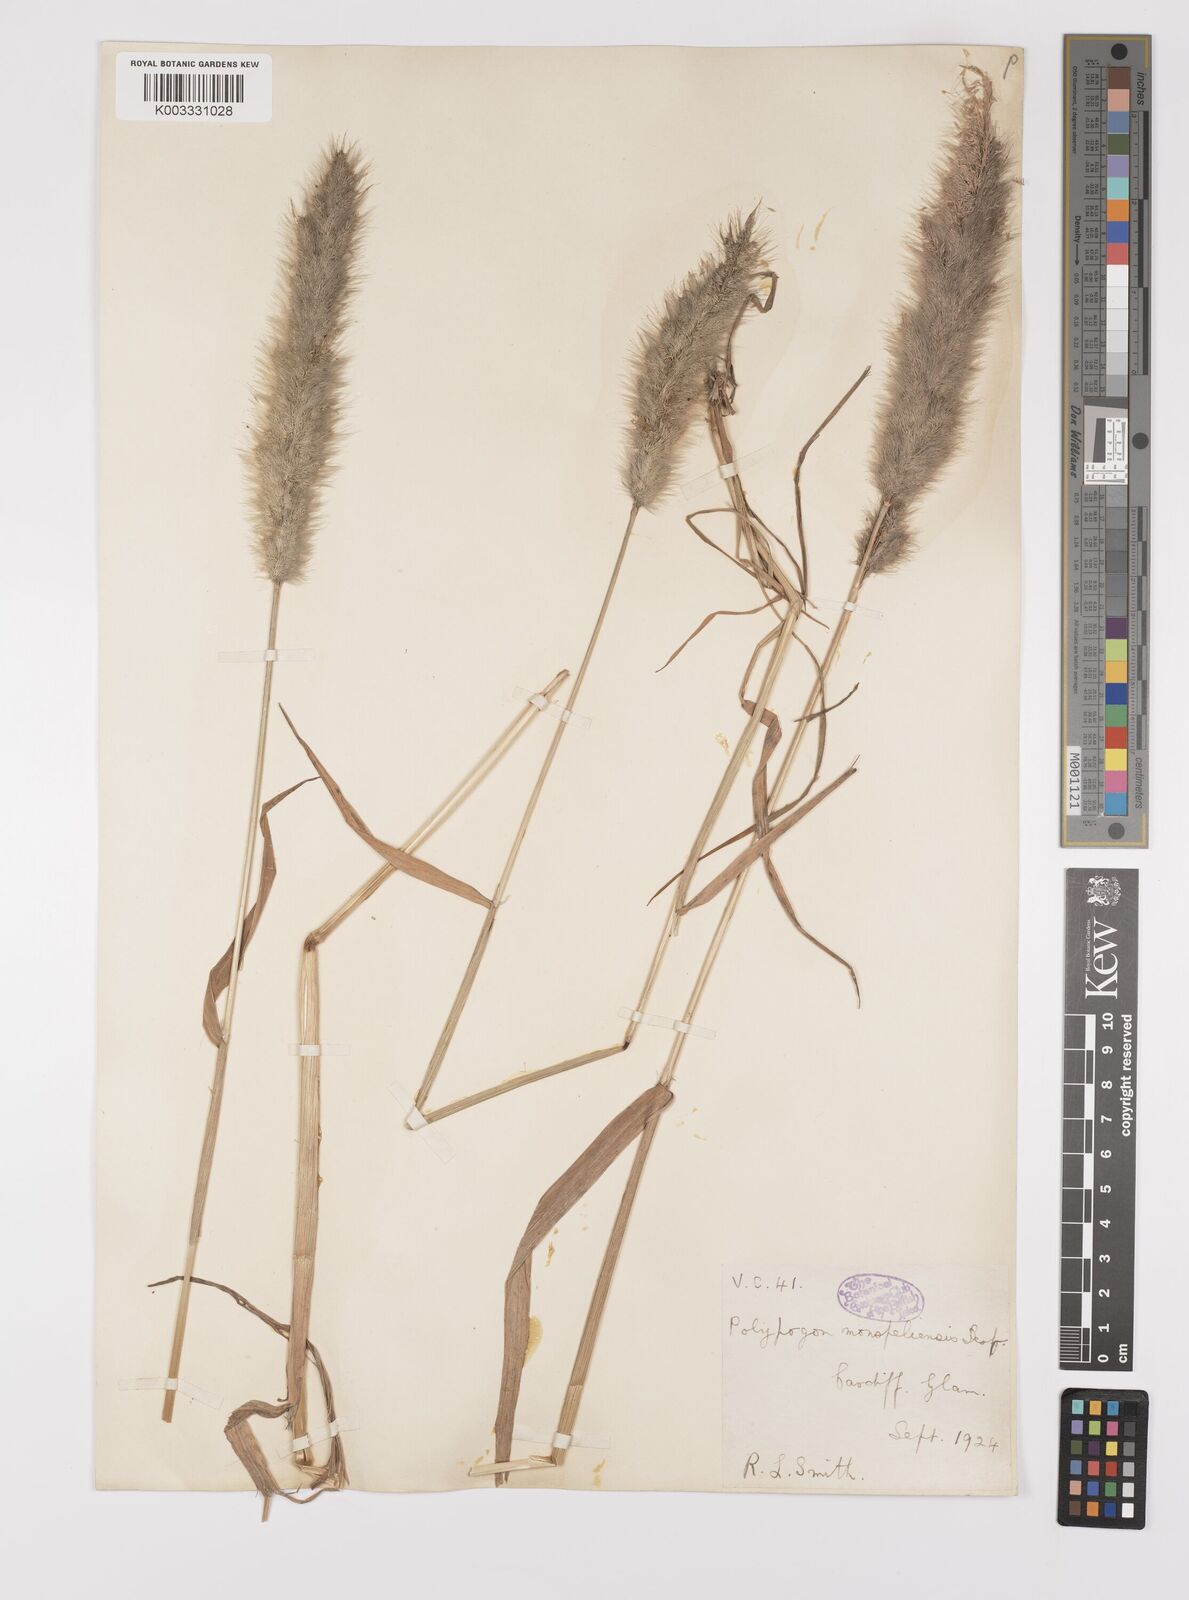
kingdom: Plantae
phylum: Tracheophyta
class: Liliopsida
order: Poales
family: Poaceae
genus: Polypogon
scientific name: Polypogon monspeliensis
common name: Annual rabbitsfoot grass
